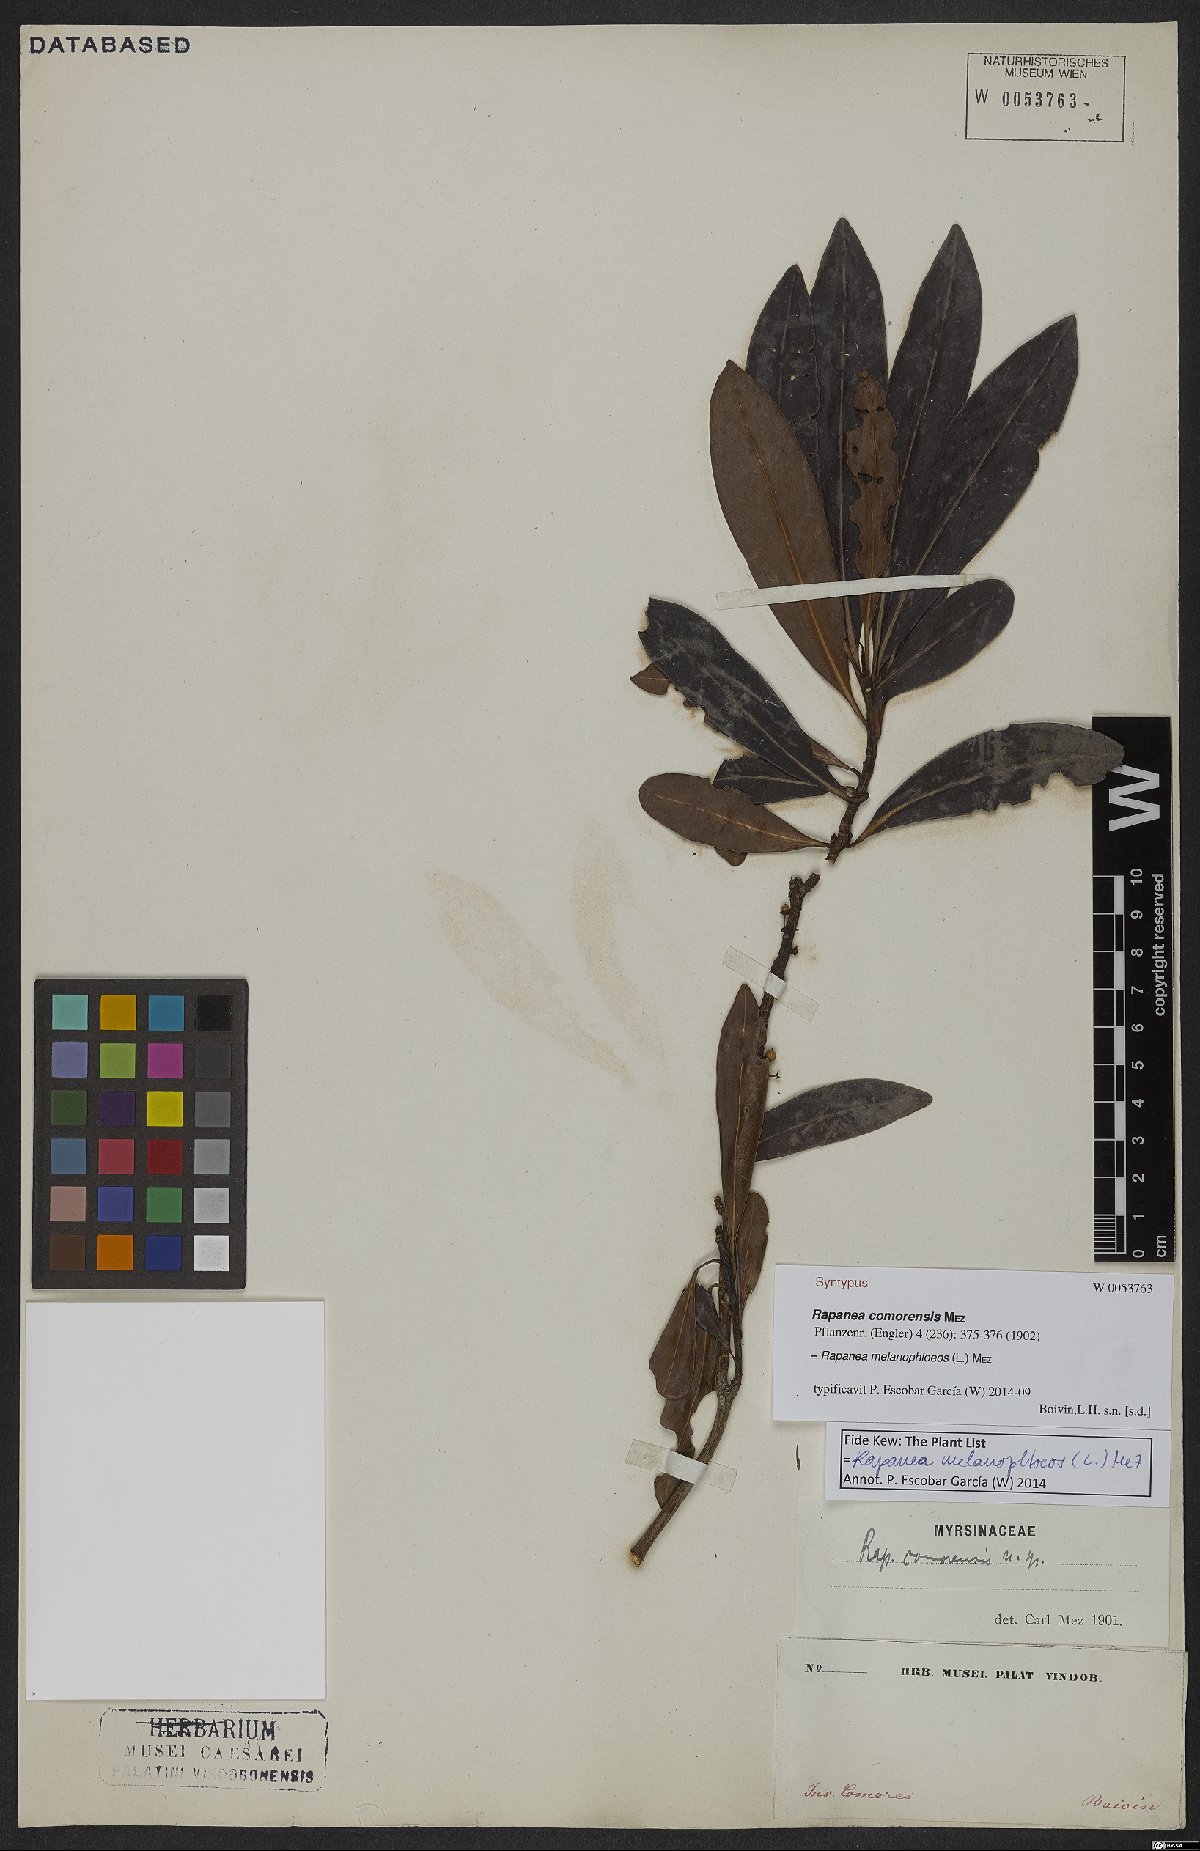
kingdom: Plantae
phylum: Tracheophyta
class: Magnoliopsida
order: Ericales
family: Primulaceae
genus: Myrsine
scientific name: Myrsine melanophloeos
